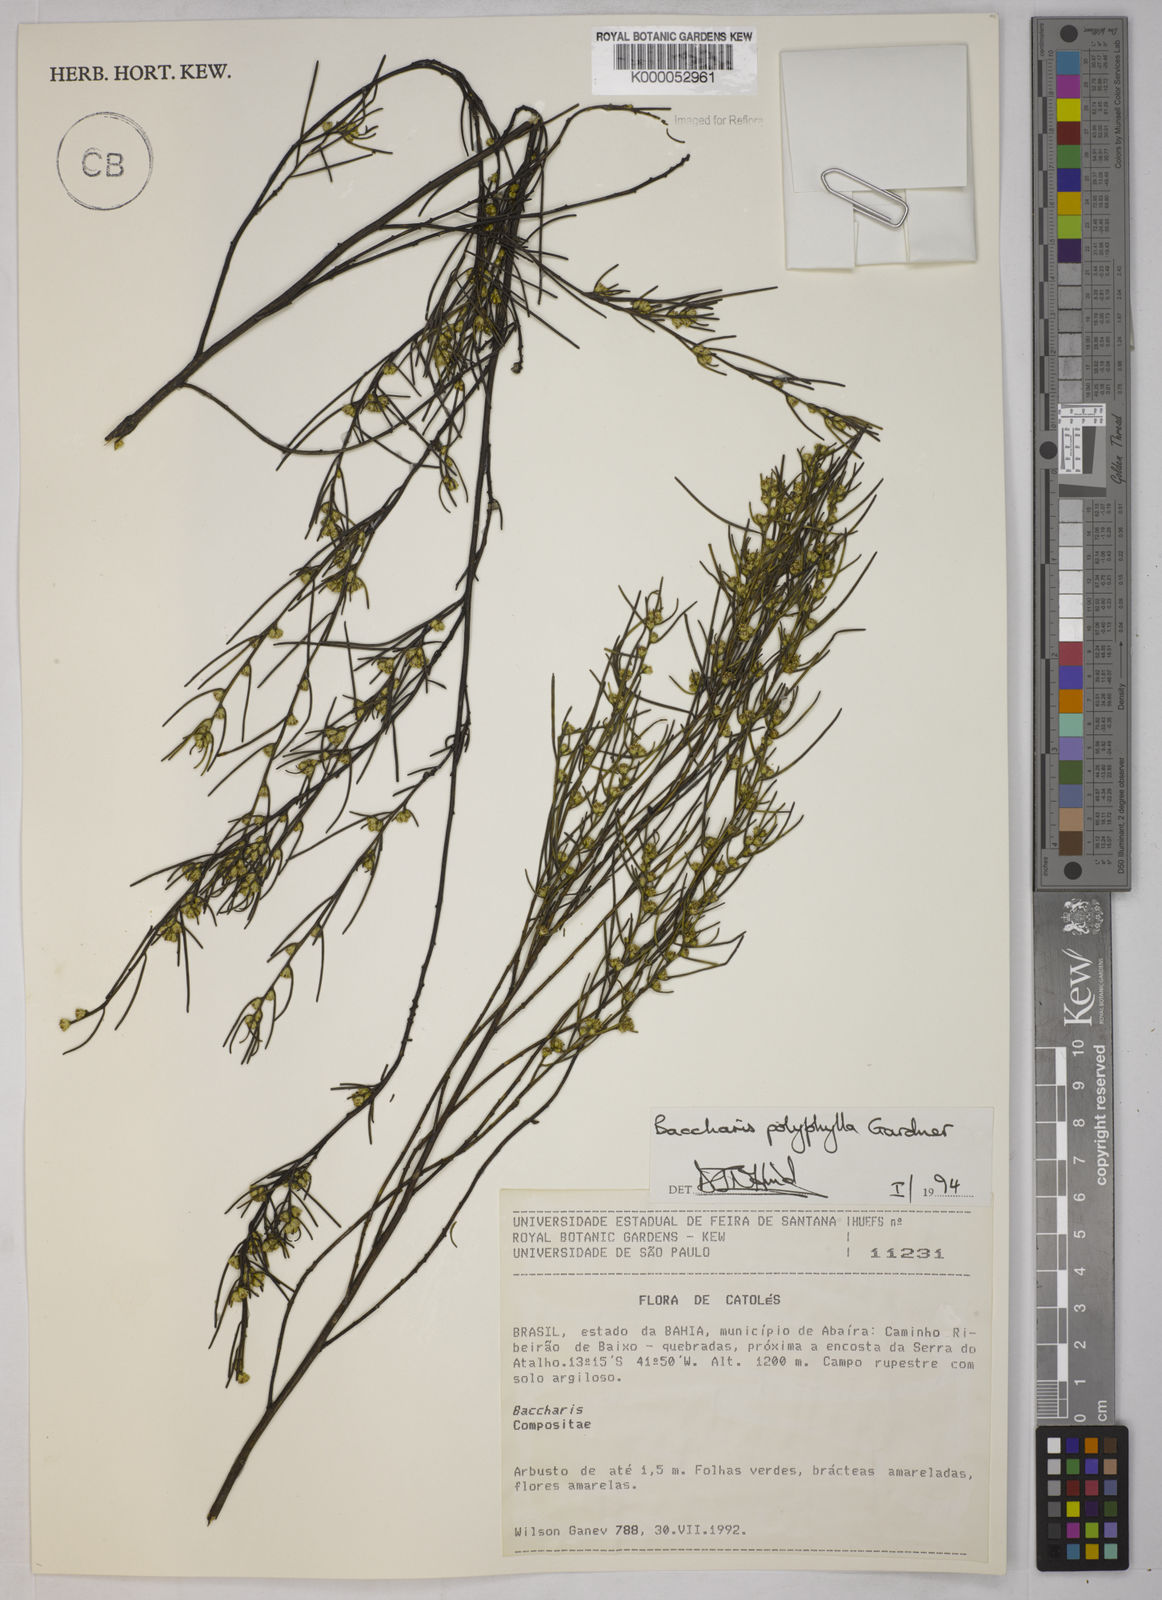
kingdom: Plantae
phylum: Tracheophyta
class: Magnoliopsida
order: Asterales
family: Asteraceae
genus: Baccharis
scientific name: Baccharis polyphylla
